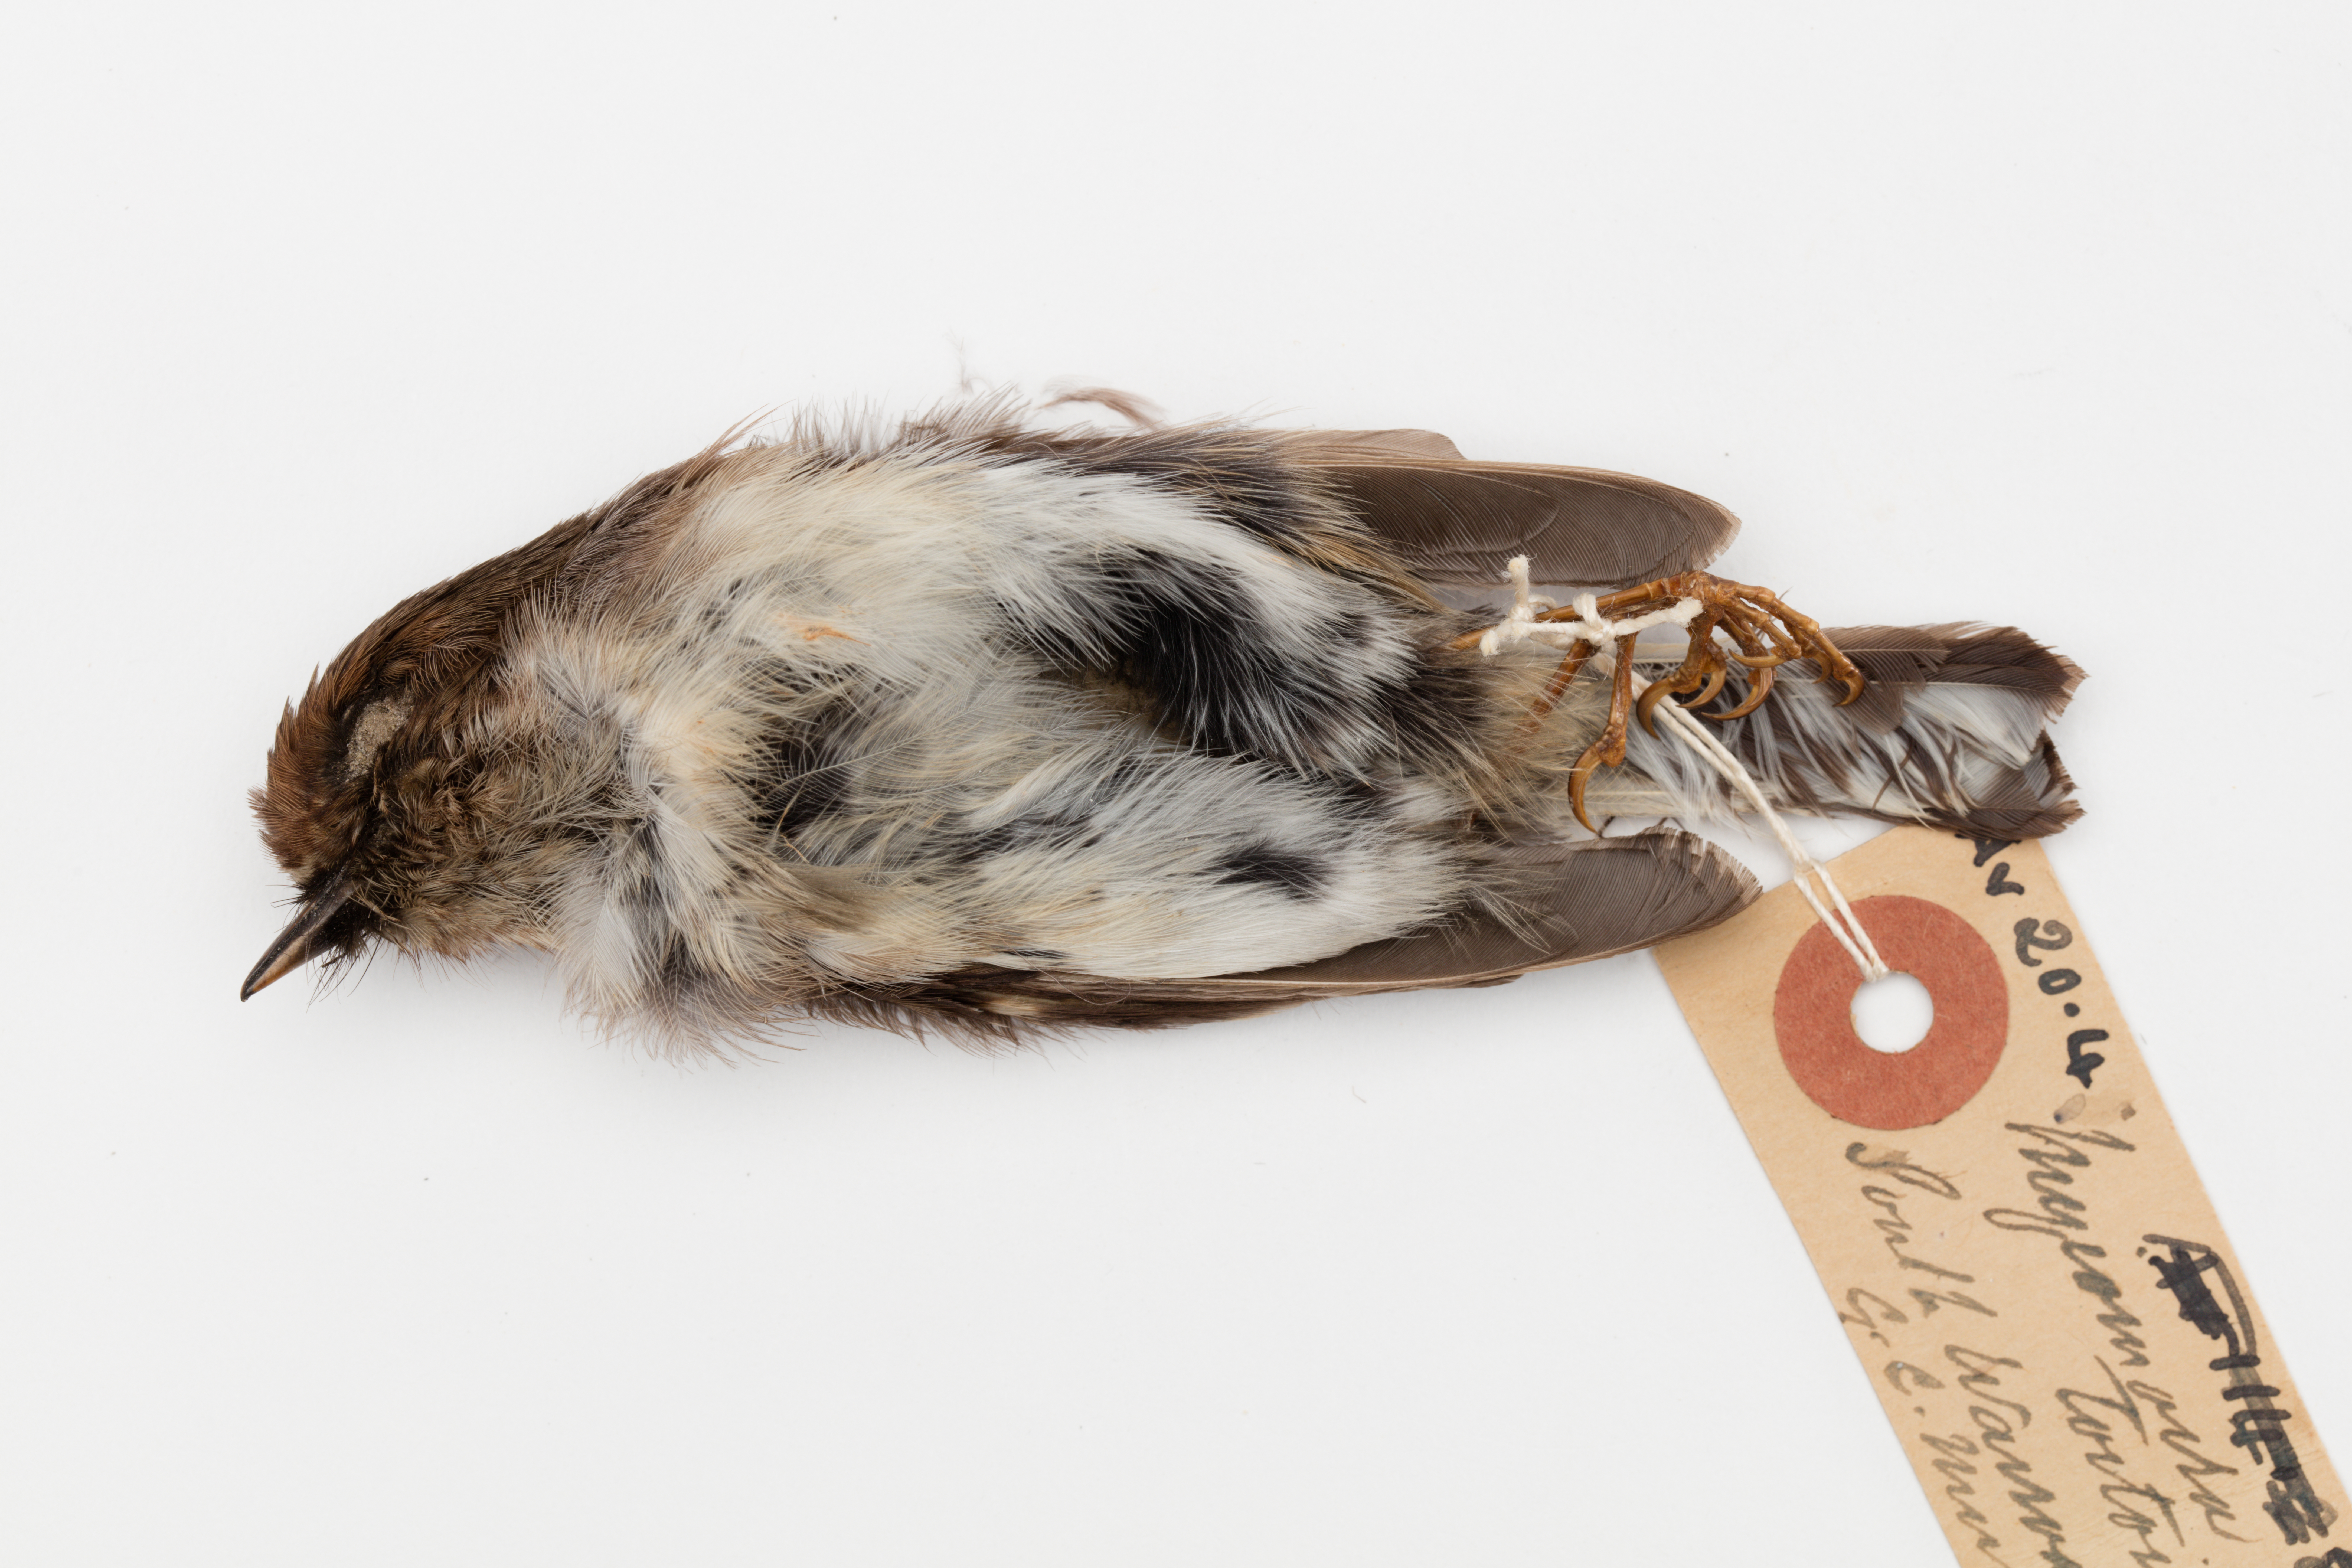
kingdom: Animalia
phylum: Chordata
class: Aves
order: Passeriformes
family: Petroicidae
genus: Petroica
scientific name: Petroica macrocephala
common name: Tomtit
